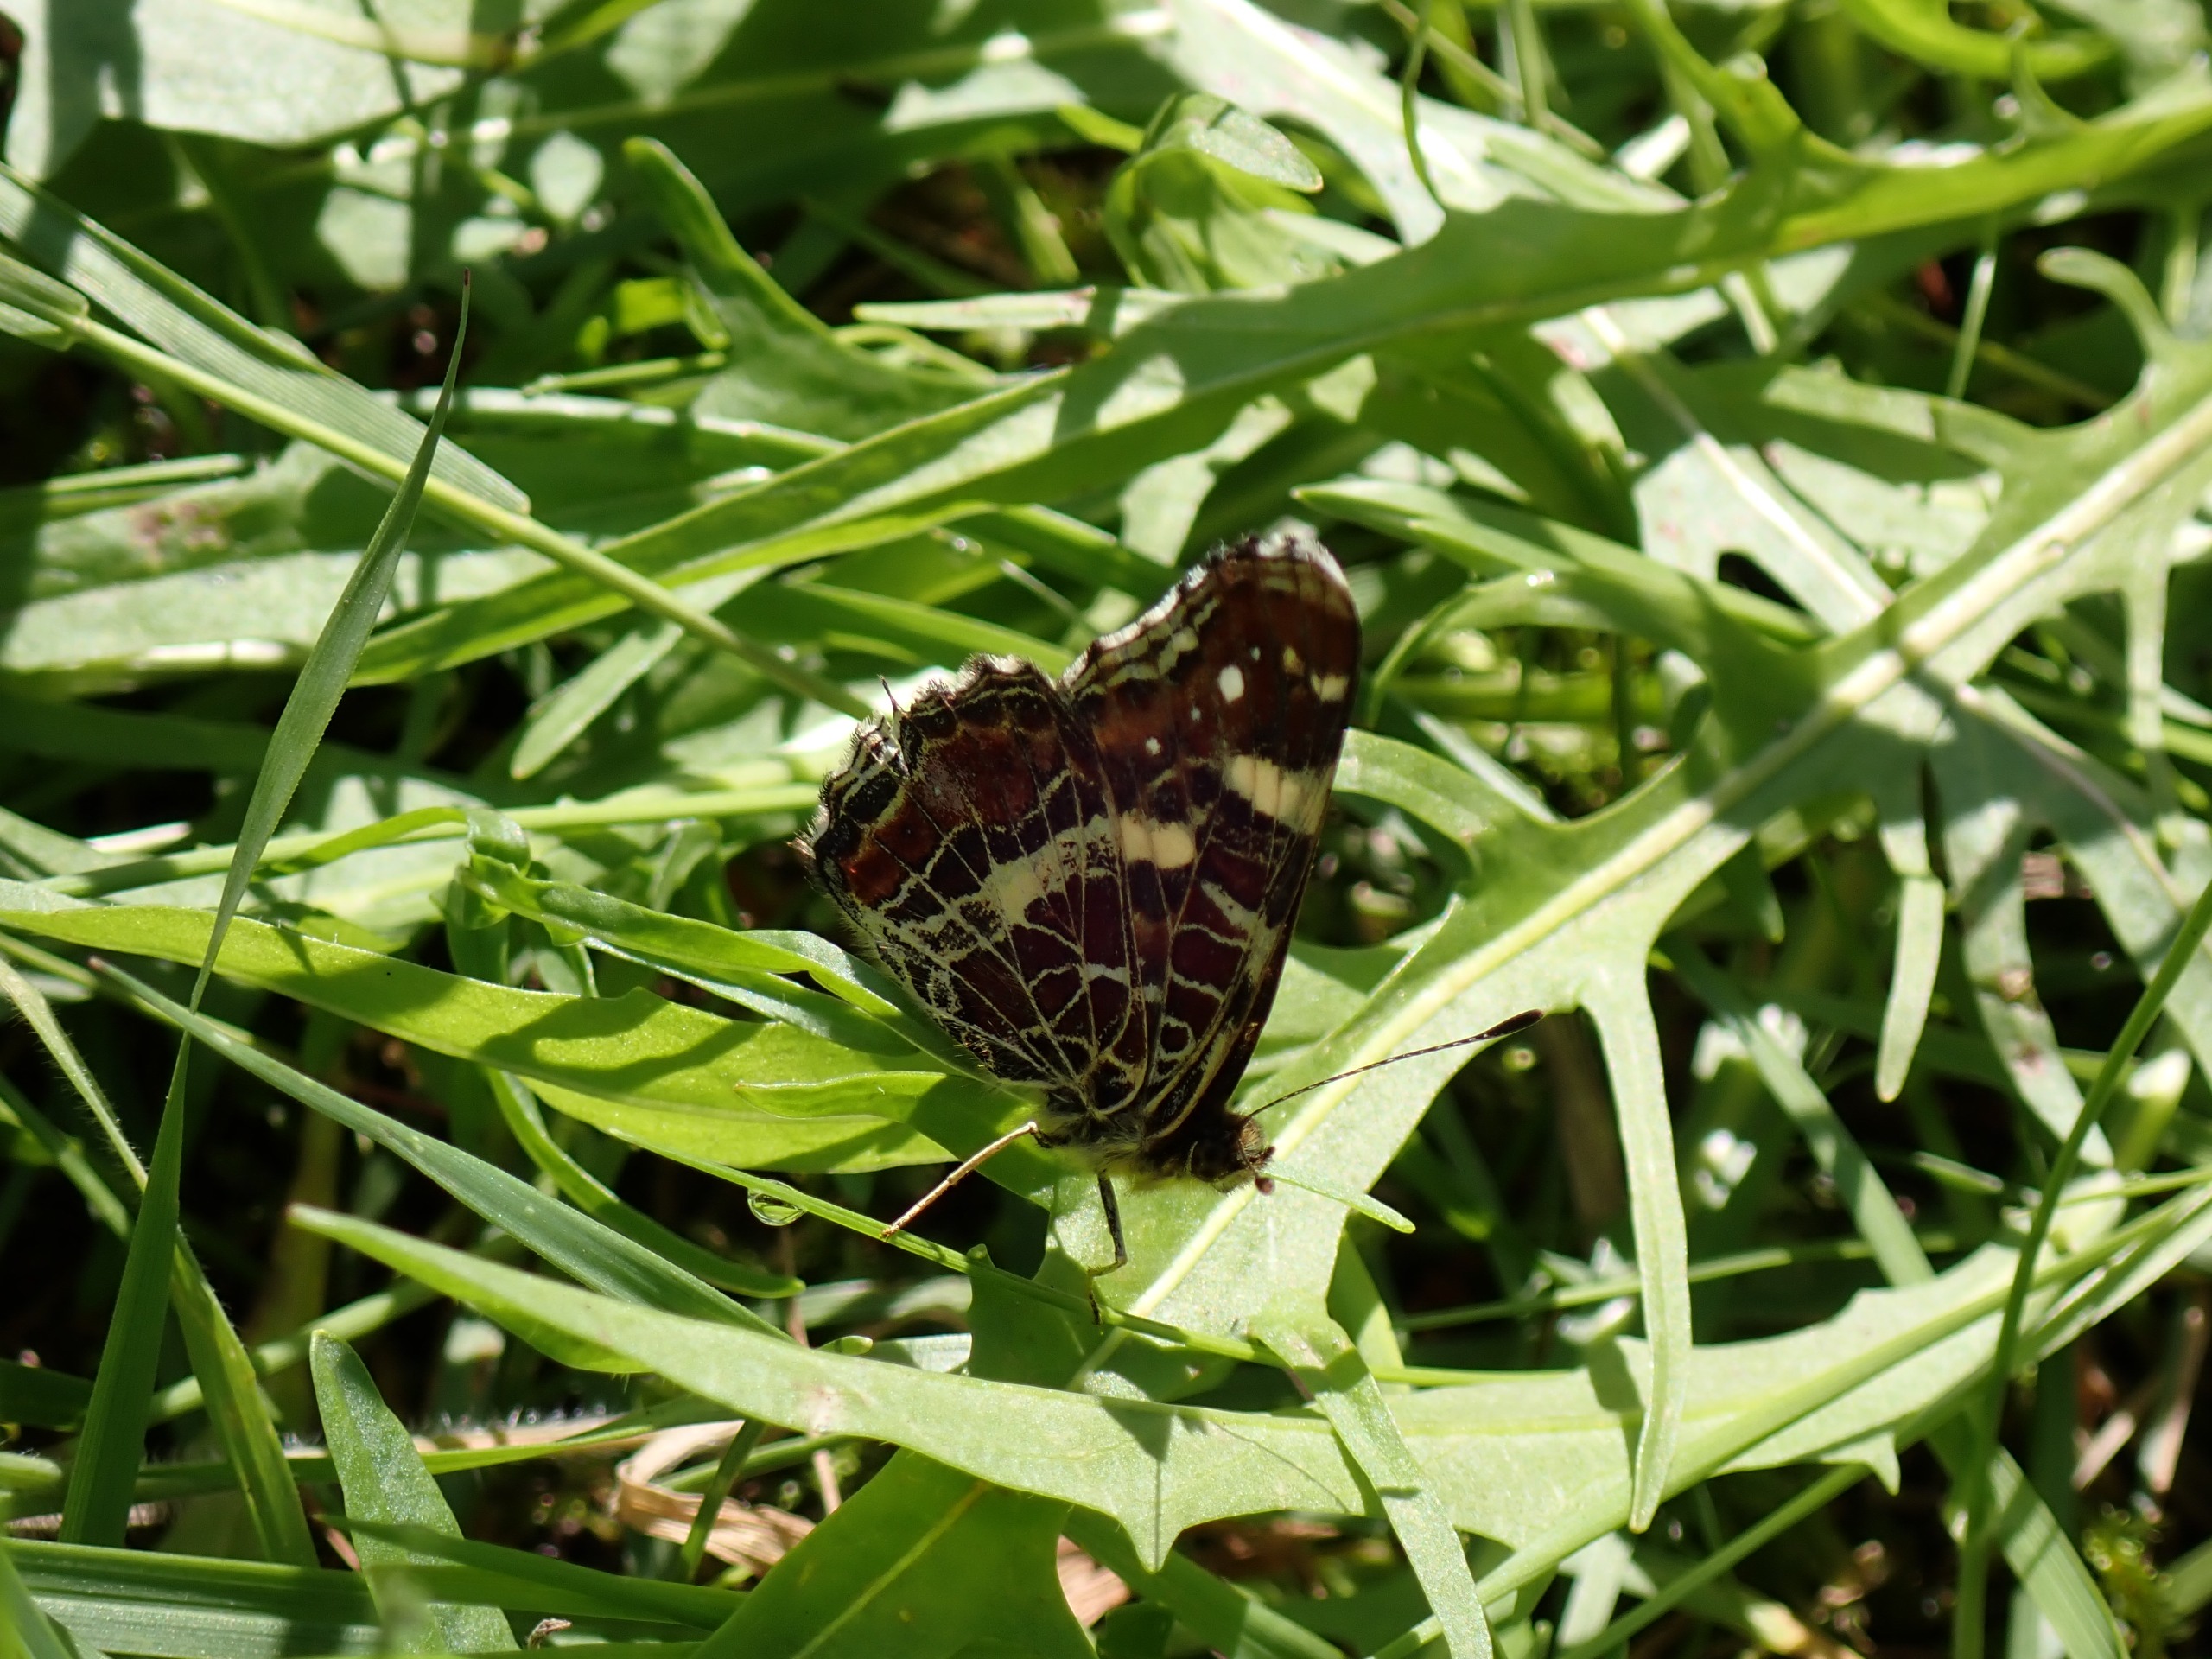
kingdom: Animalia
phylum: Arthropoda
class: Insecta
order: Lepidoptera
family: Nymphalidae
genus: Araschnia
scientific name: Araschnia levana
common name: Nældesommerfugl
